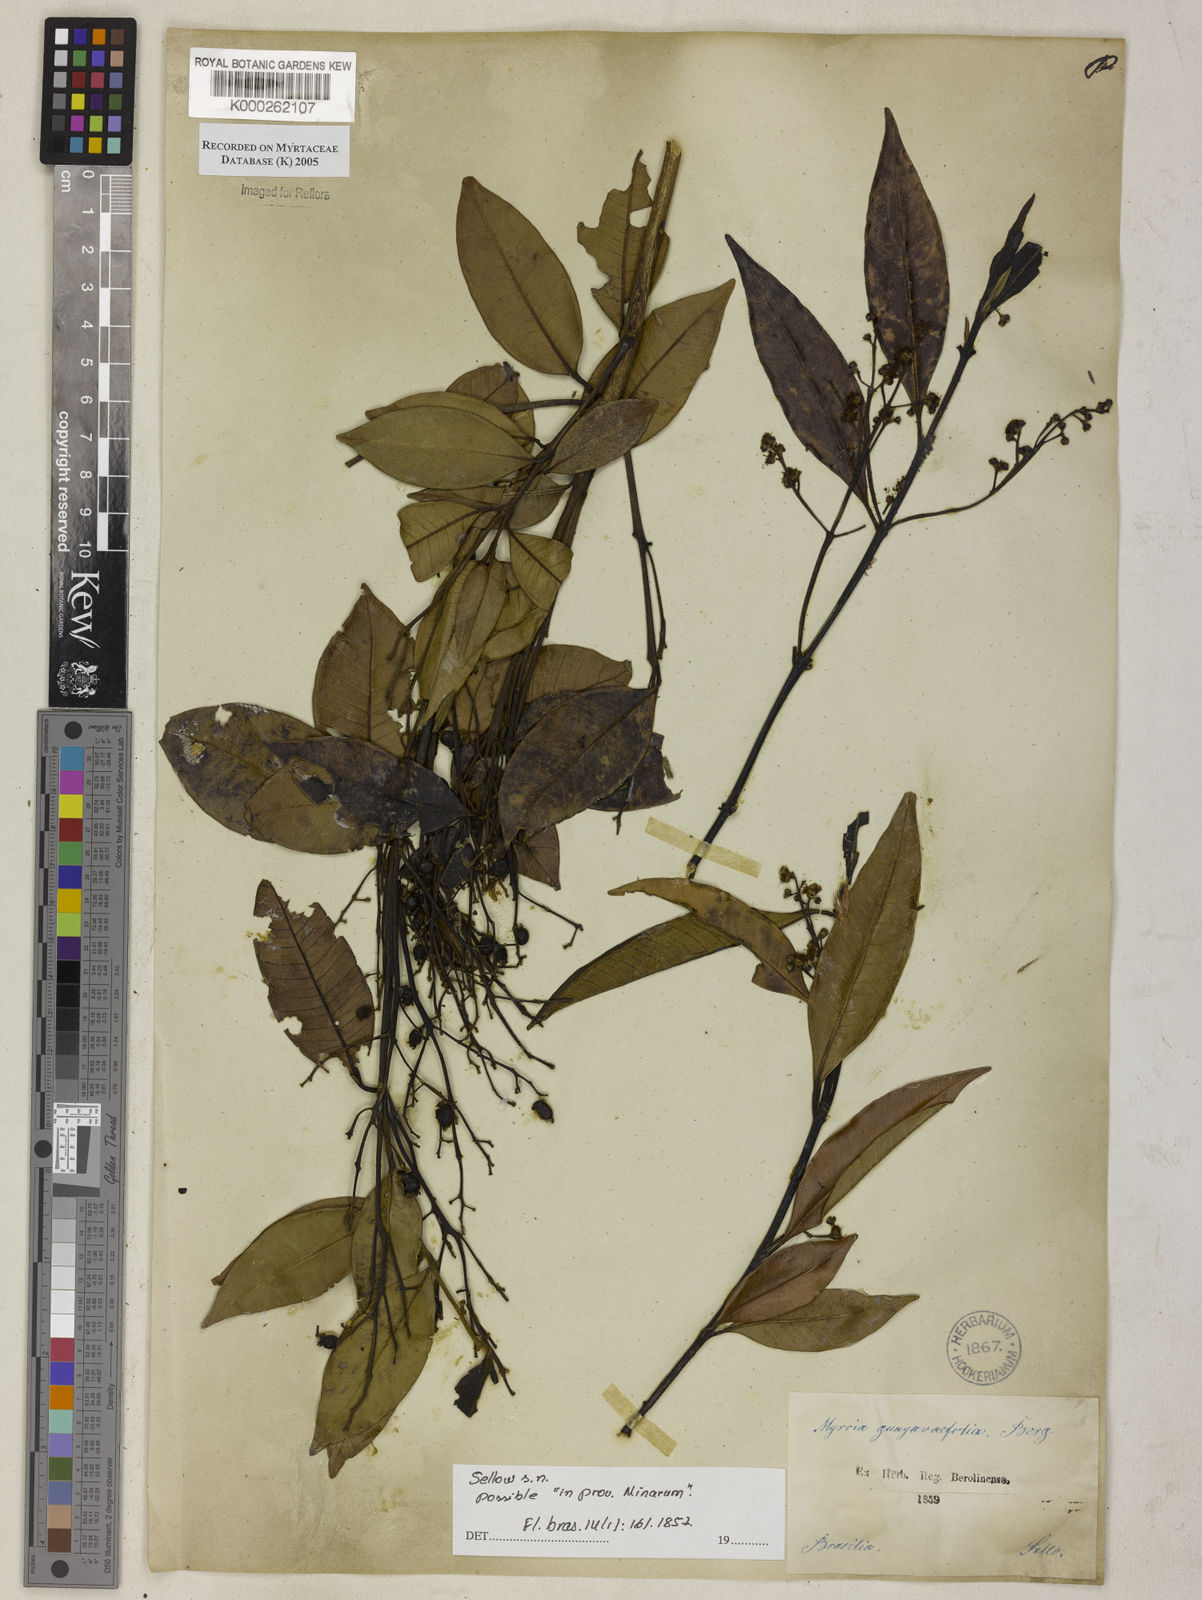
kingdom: Plantae
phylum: Tracheophyta
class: Magnoliopsida
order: Myrtales
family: Myrtaceae
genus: Myrcia
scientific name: Myrcia splendens
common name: Surinam cherry
